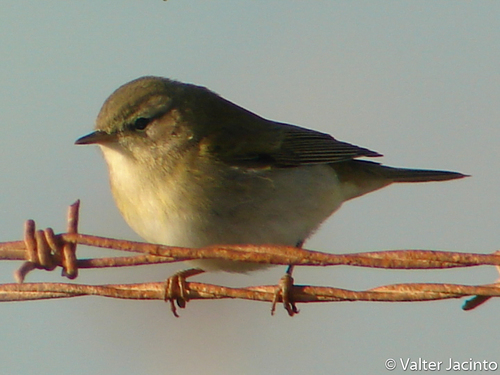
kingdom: Animalia
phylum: Chordata
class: Aves
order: Passeriformes
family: Phylloscopidae
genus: Phylloscopus
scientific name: Phylloscopus collybita
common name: Common chiffchaff
